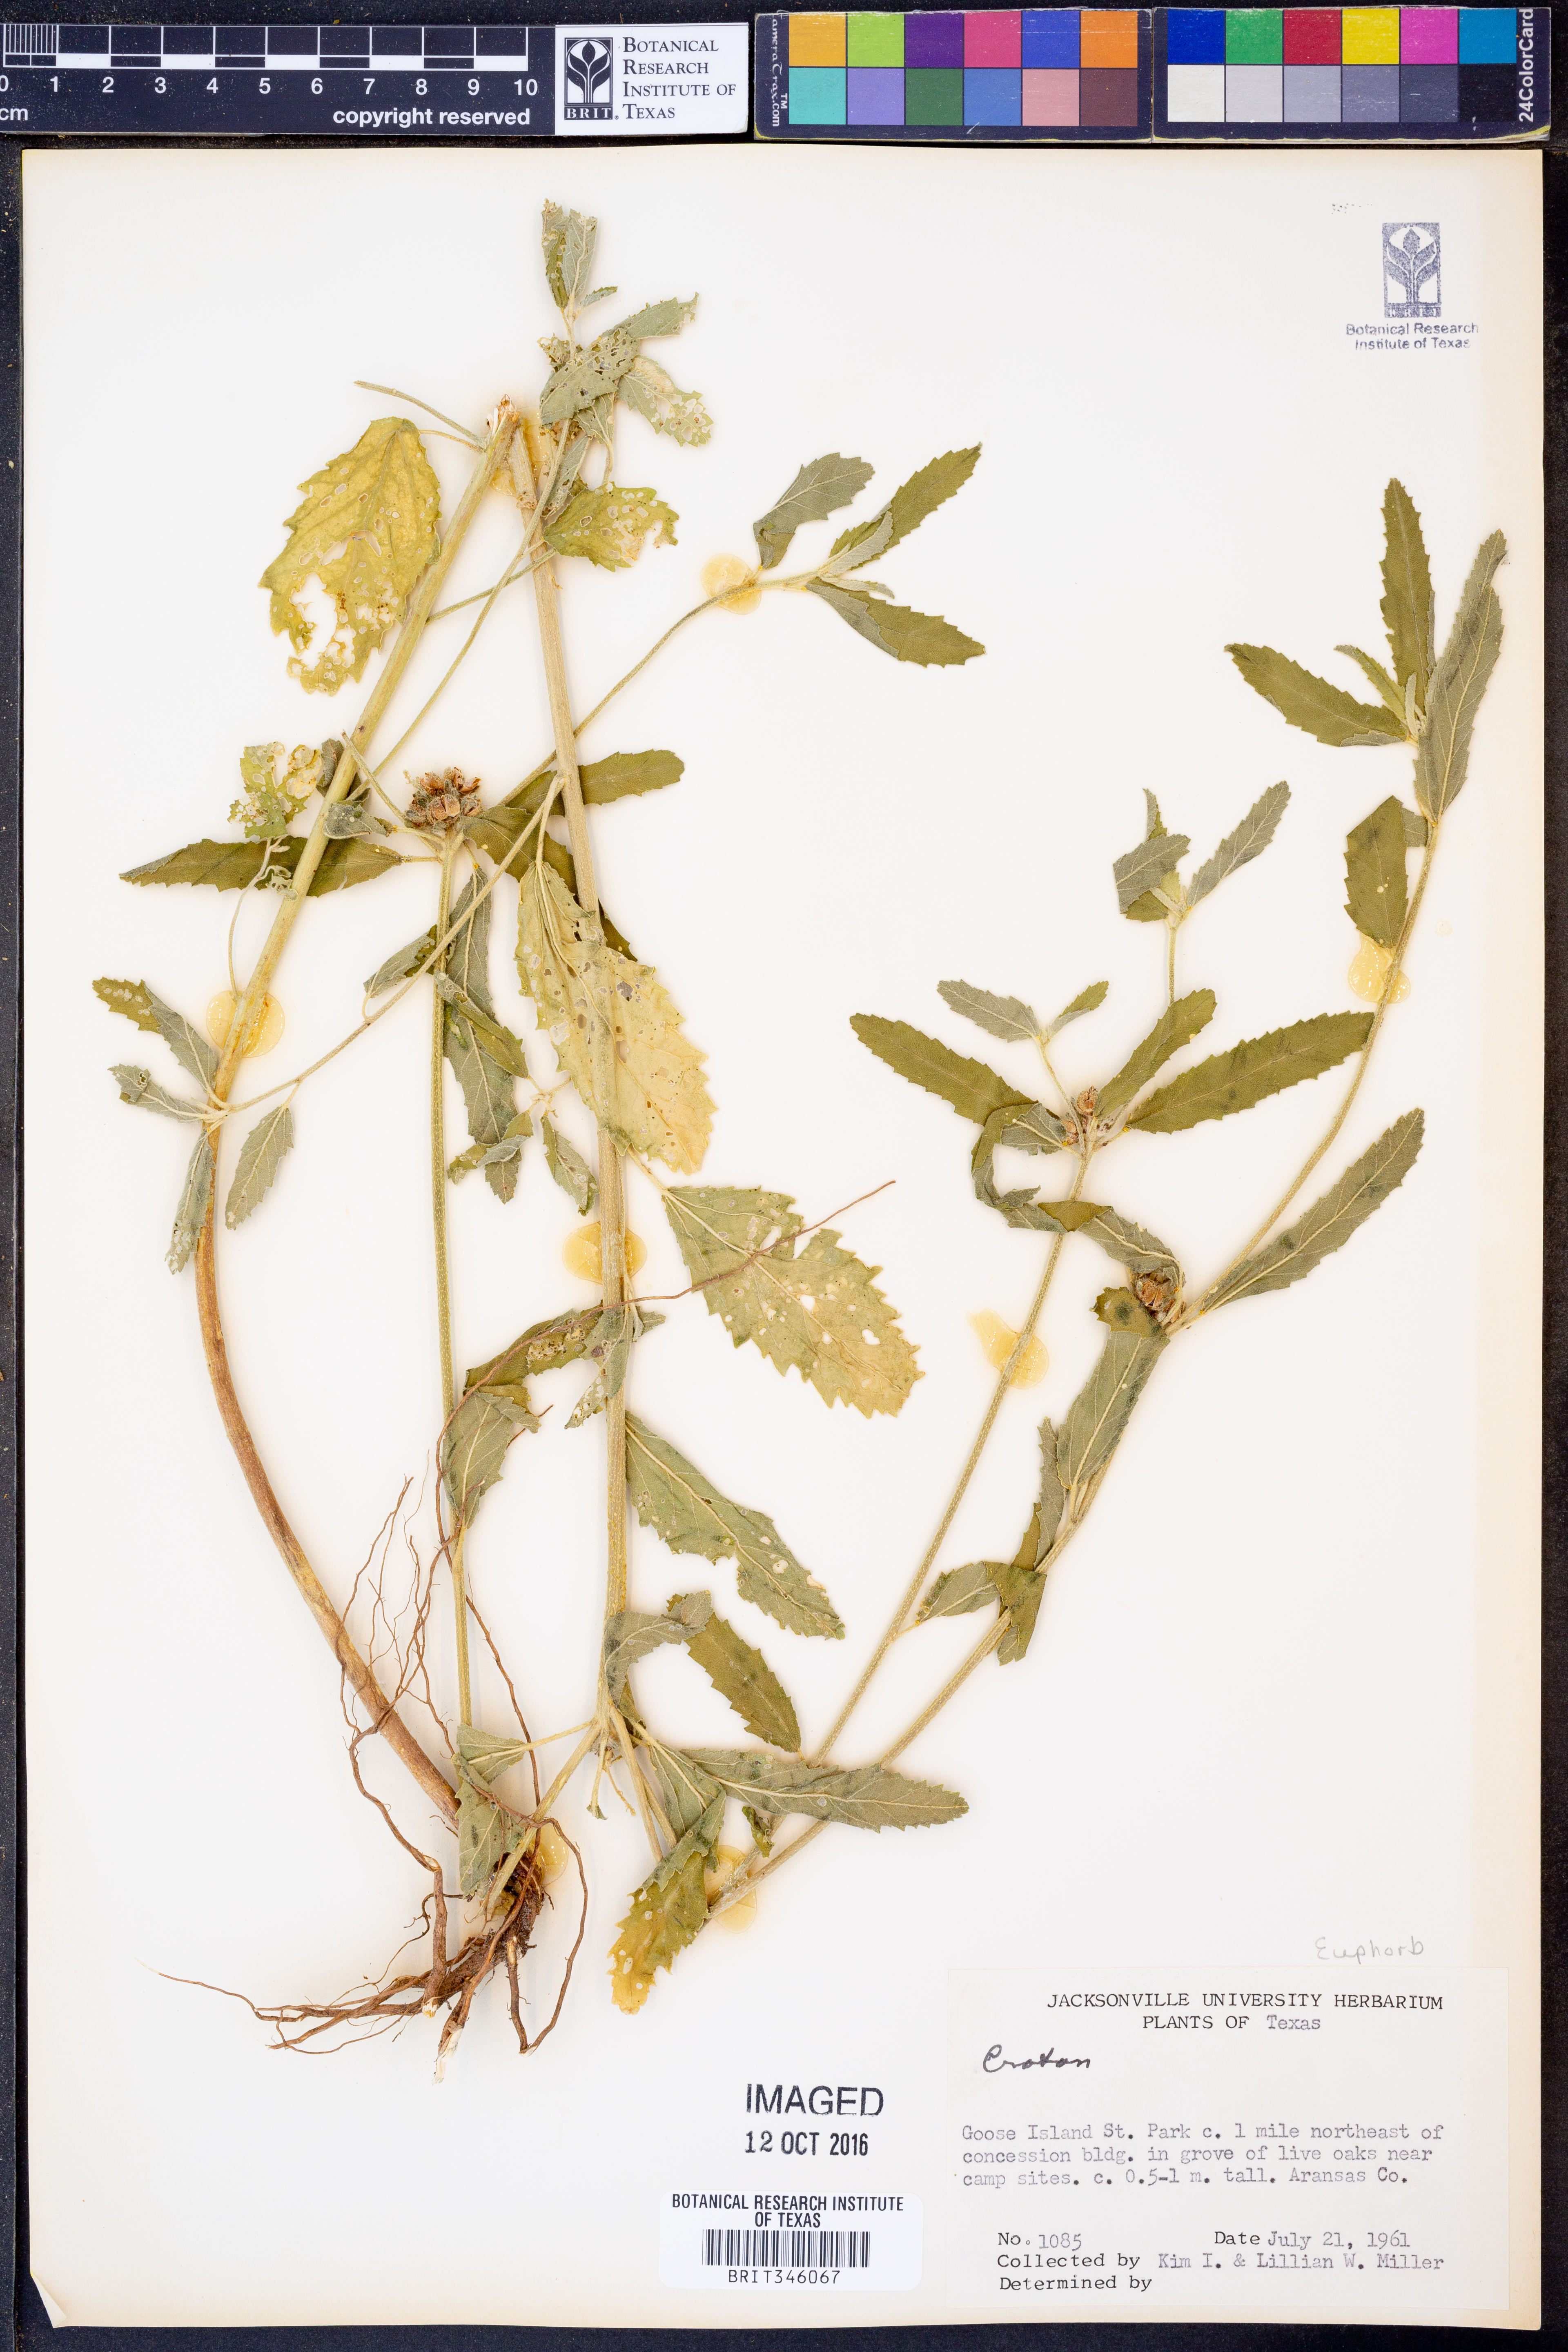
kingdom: Plantae
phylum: Tracheophyta
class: Magnoliopsida
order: Malpighiales
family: Euphorbiaceae
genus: Croton
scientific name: Croton
